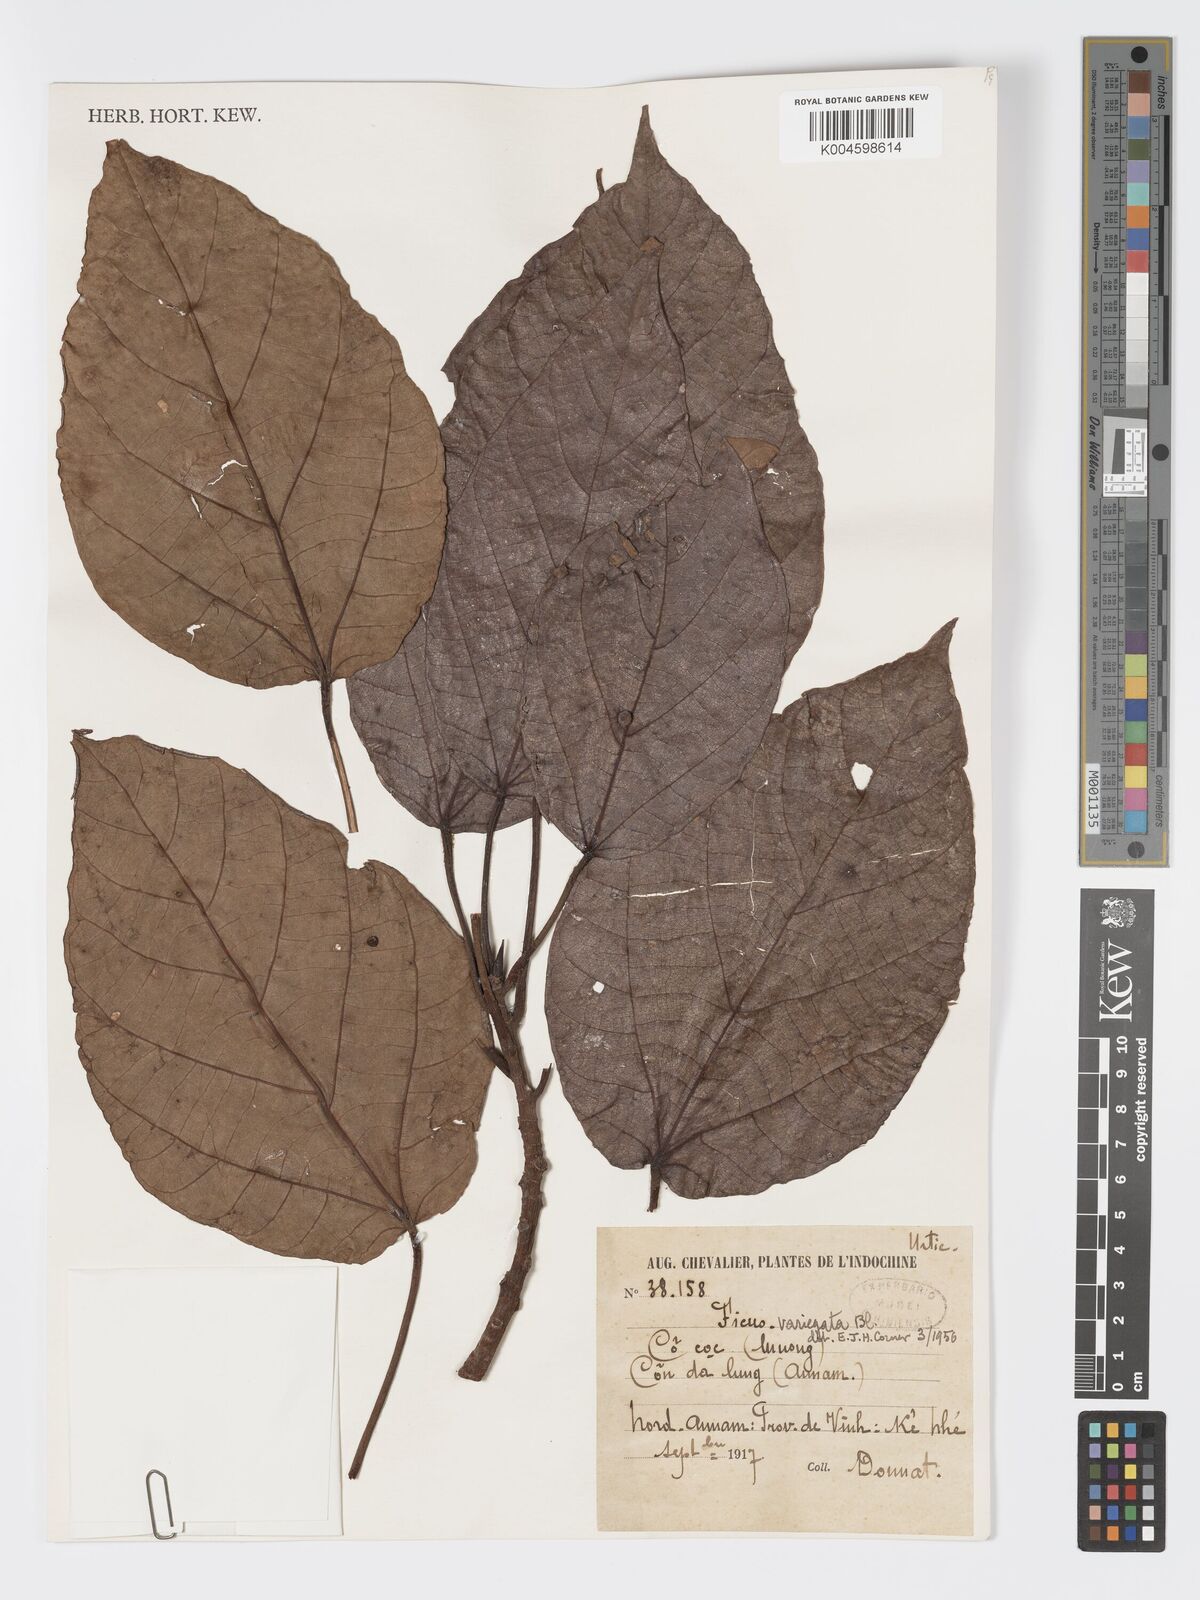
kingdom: Plantae
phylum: Tracheophyta
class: Magnoliopsida
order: Rosales
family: Moraceae
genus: Ficus
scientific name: Ficus variegata
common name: Variegated fig
